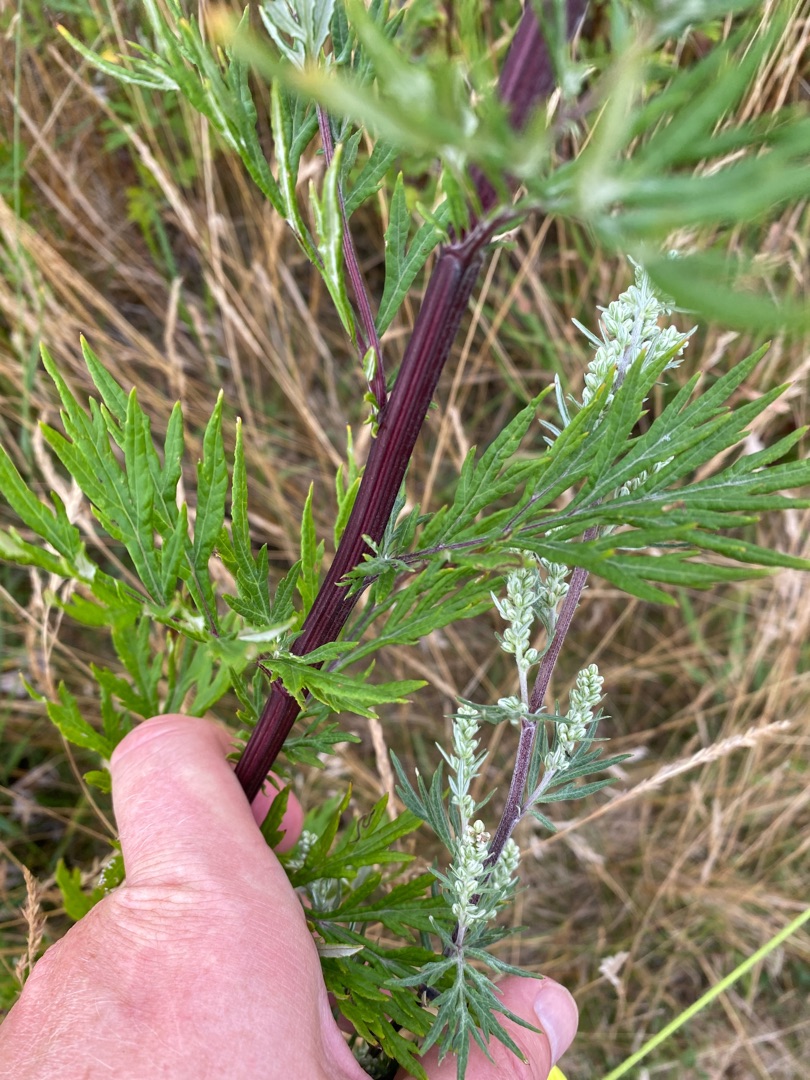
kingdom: Plantae
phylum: Tracheophyta
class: Magnoliopsida
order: Asterales
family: Asteraceae
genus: Artemisia
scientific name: Artemisia vulgaris
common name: Grå-bynke
